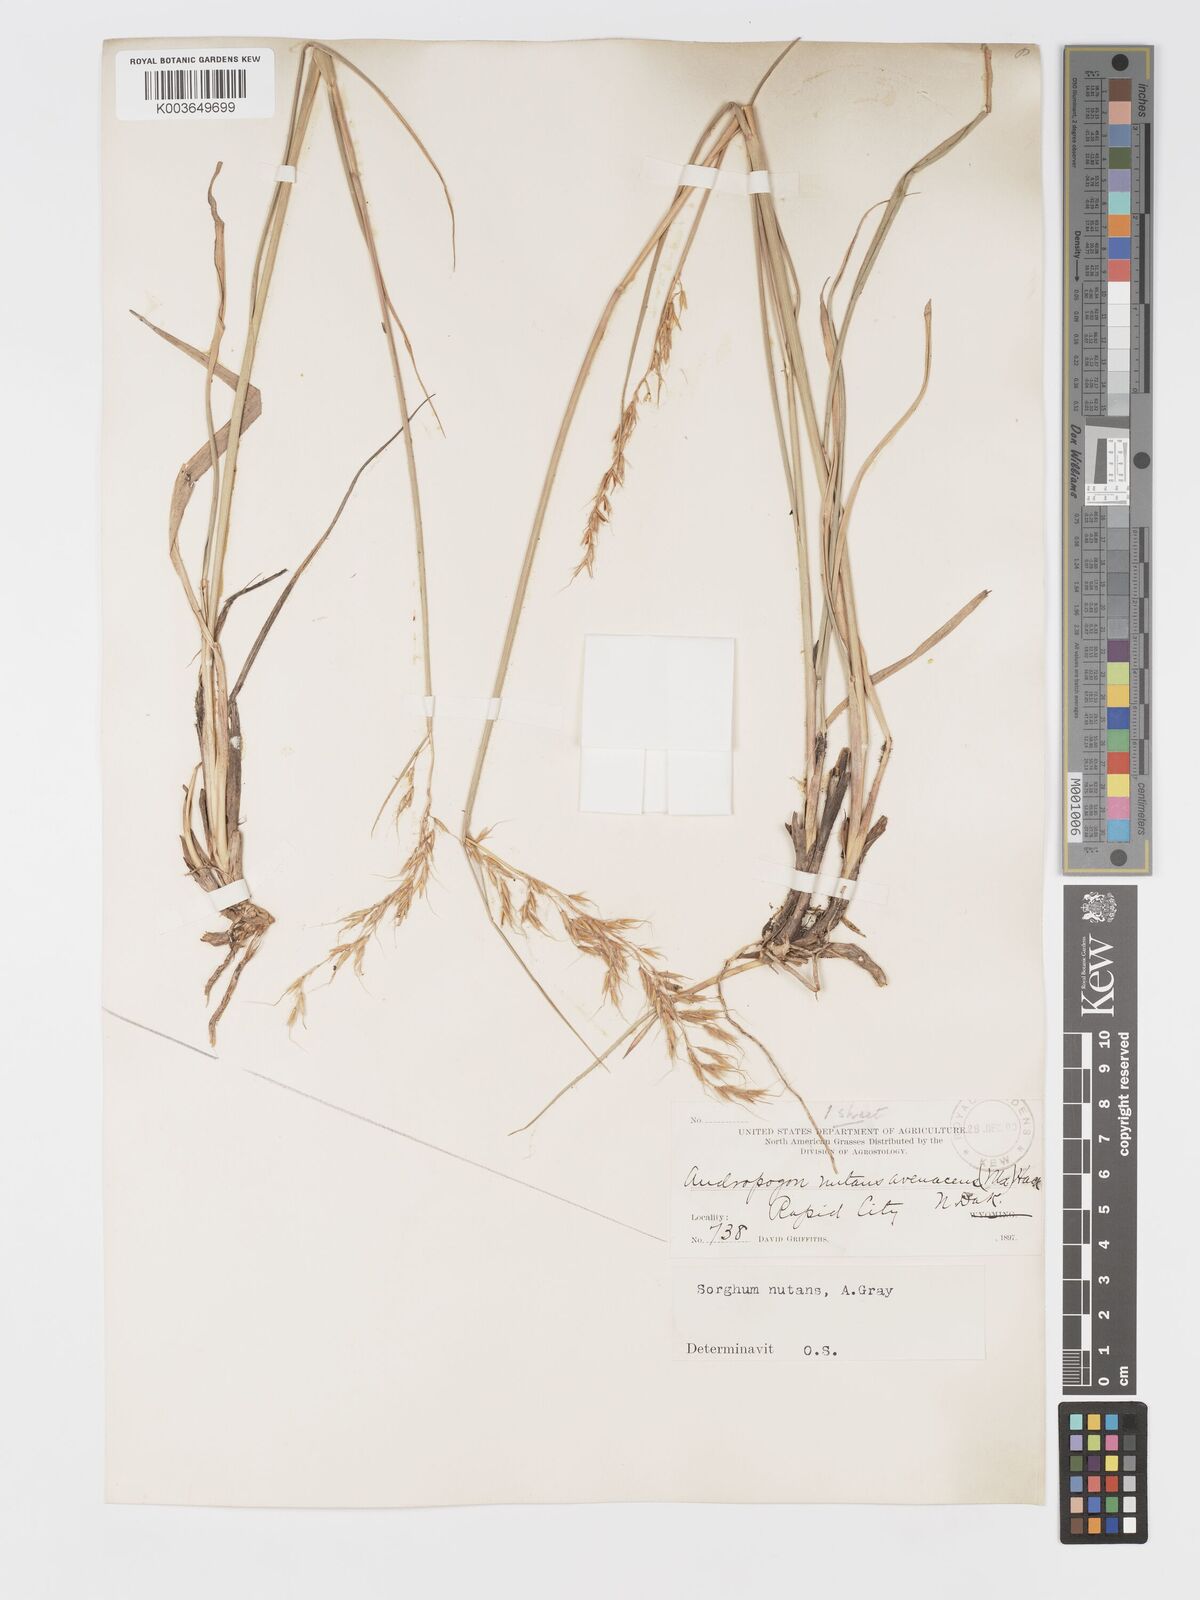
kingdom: Plantae
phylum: Tracheophyta
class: Liliopsida
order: Poales
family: Poaceae
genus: Sorghastrum
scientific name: Sorghastrum nutans
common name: Indian grass
